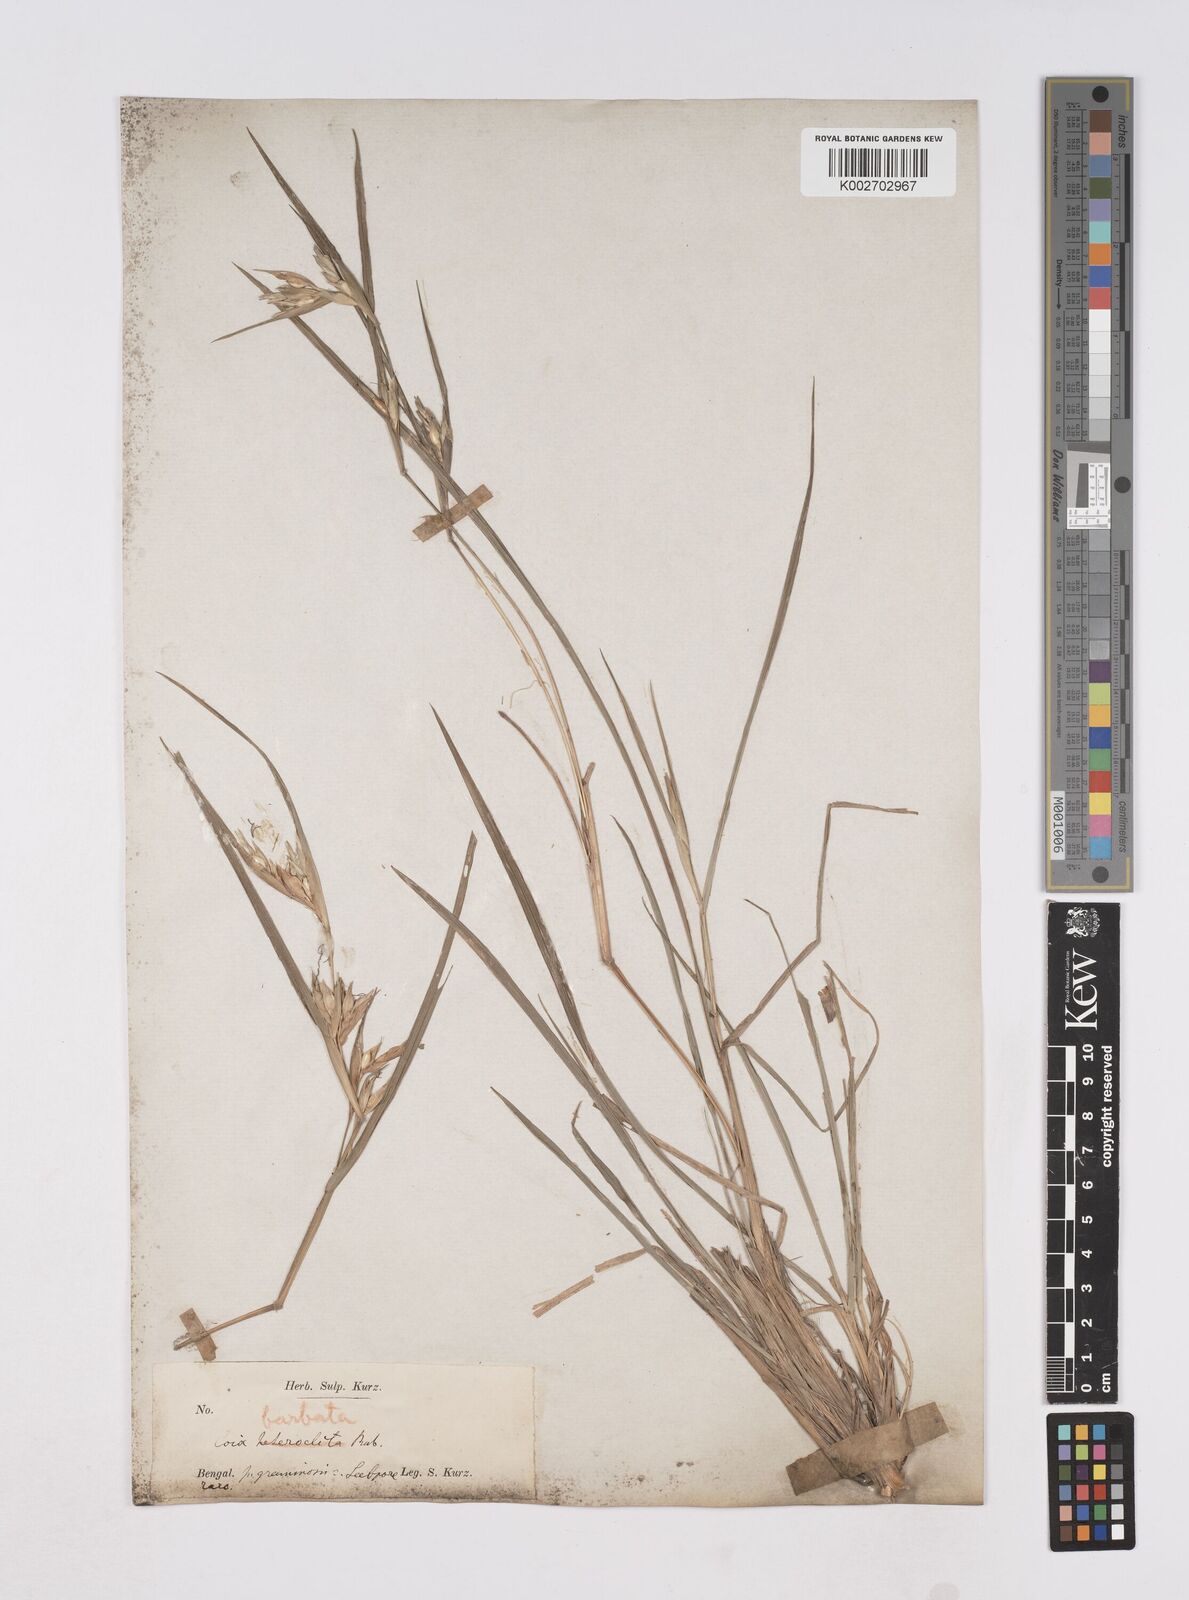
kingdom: Plantae
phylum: Tracheophyta
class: Liliopsida
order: Poales
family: Poaceae
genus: Polytoca
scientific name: Polytoca gigantea
